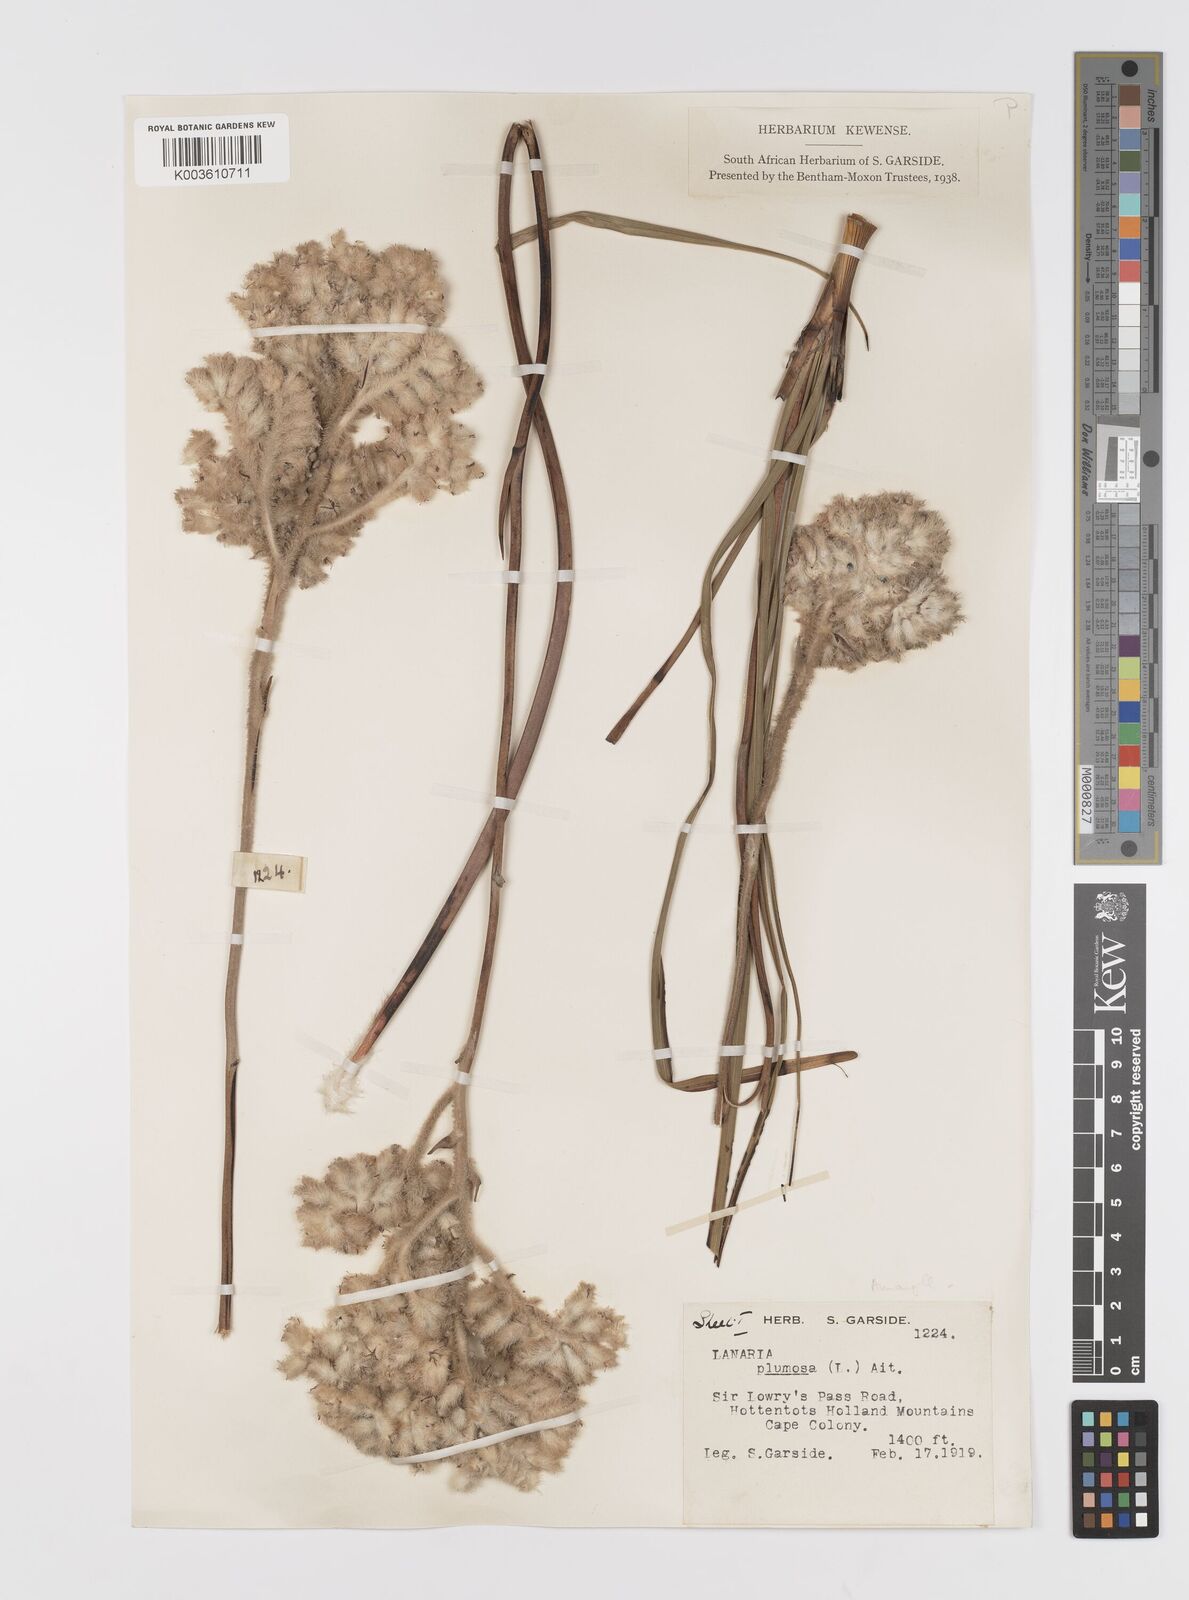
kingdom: Plantae
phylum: Tracheophyta
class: Liliopsida
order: Asparagales
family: Lanariaceae
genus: Lanaria
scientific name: Lanaria lanata
